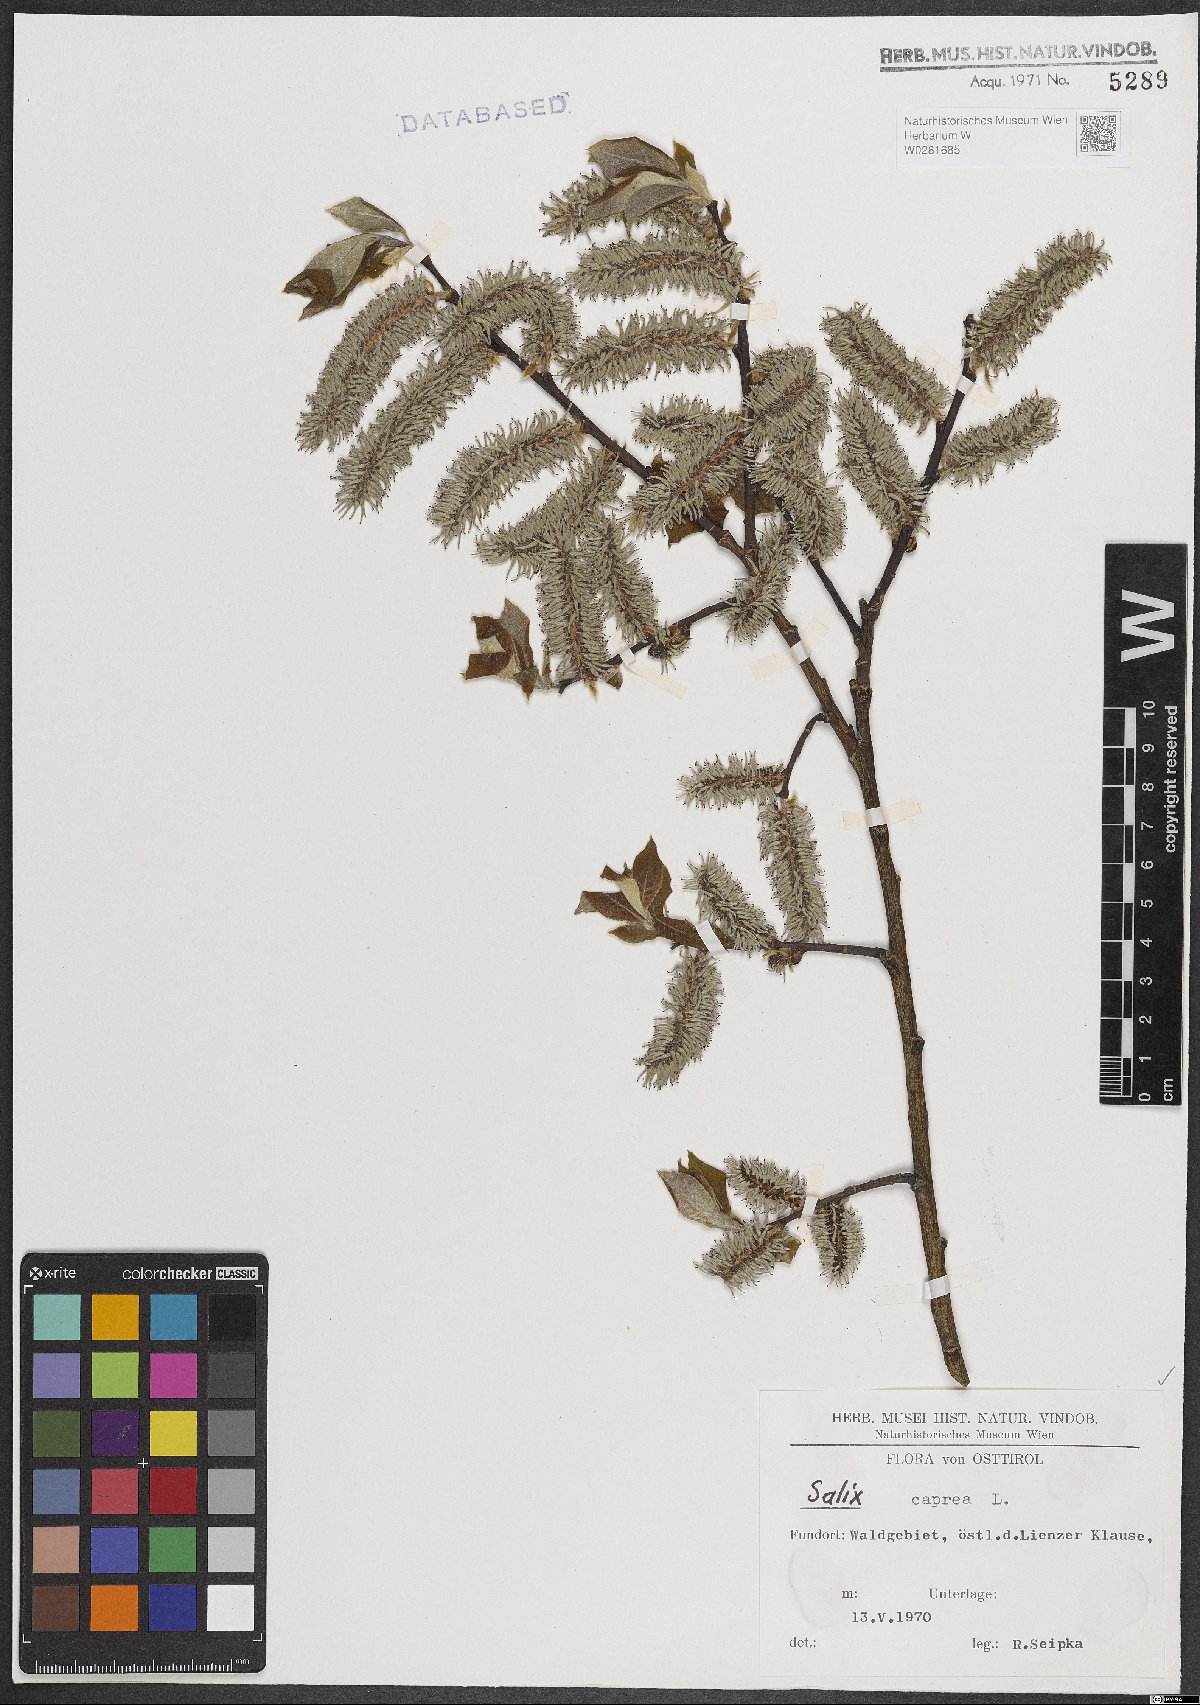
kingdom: Plantae
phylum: Tracheophyta
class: Magnoliopsida
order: Malpighiales
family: Salicaceae
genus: Salix
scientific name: Salix caprea
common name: Goat willow
